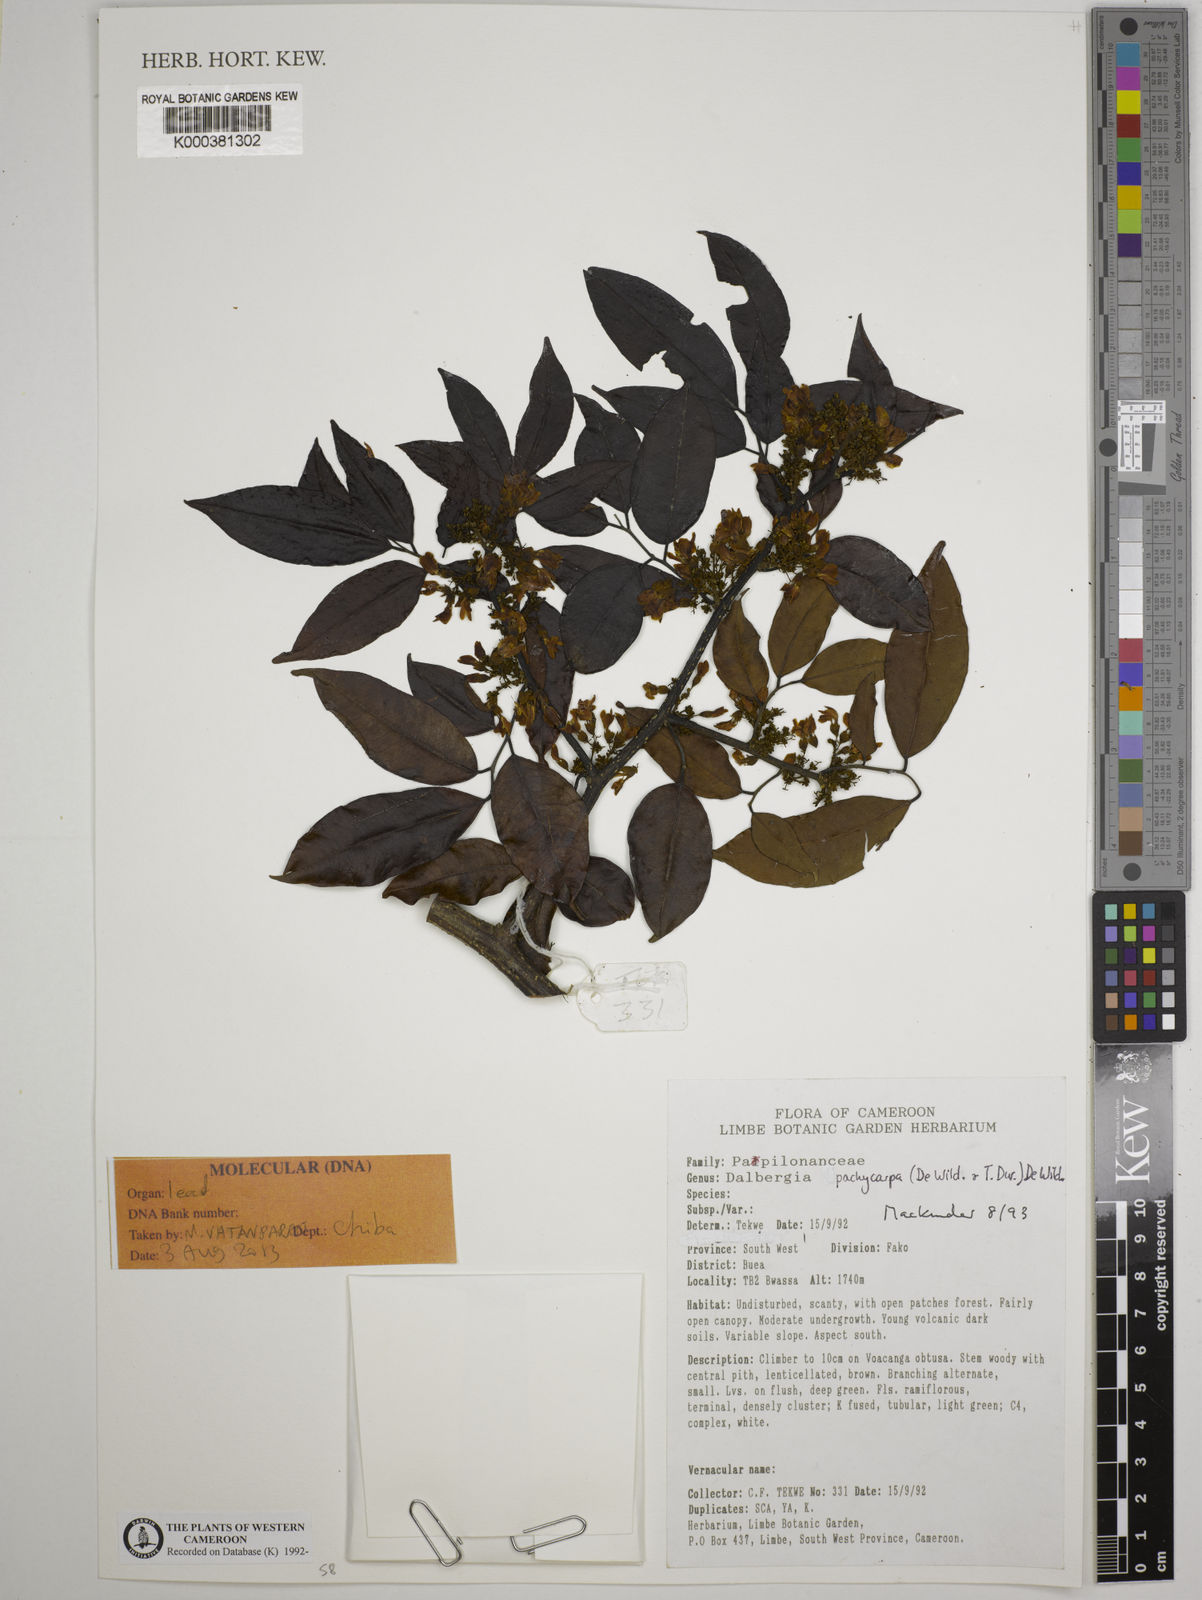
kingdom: Plantae
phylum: Tracheophyta
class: Magnoliopsida
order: Fabales
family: Fabaceae
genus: Dalbergia
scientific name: Dalbergia pachycarpa
